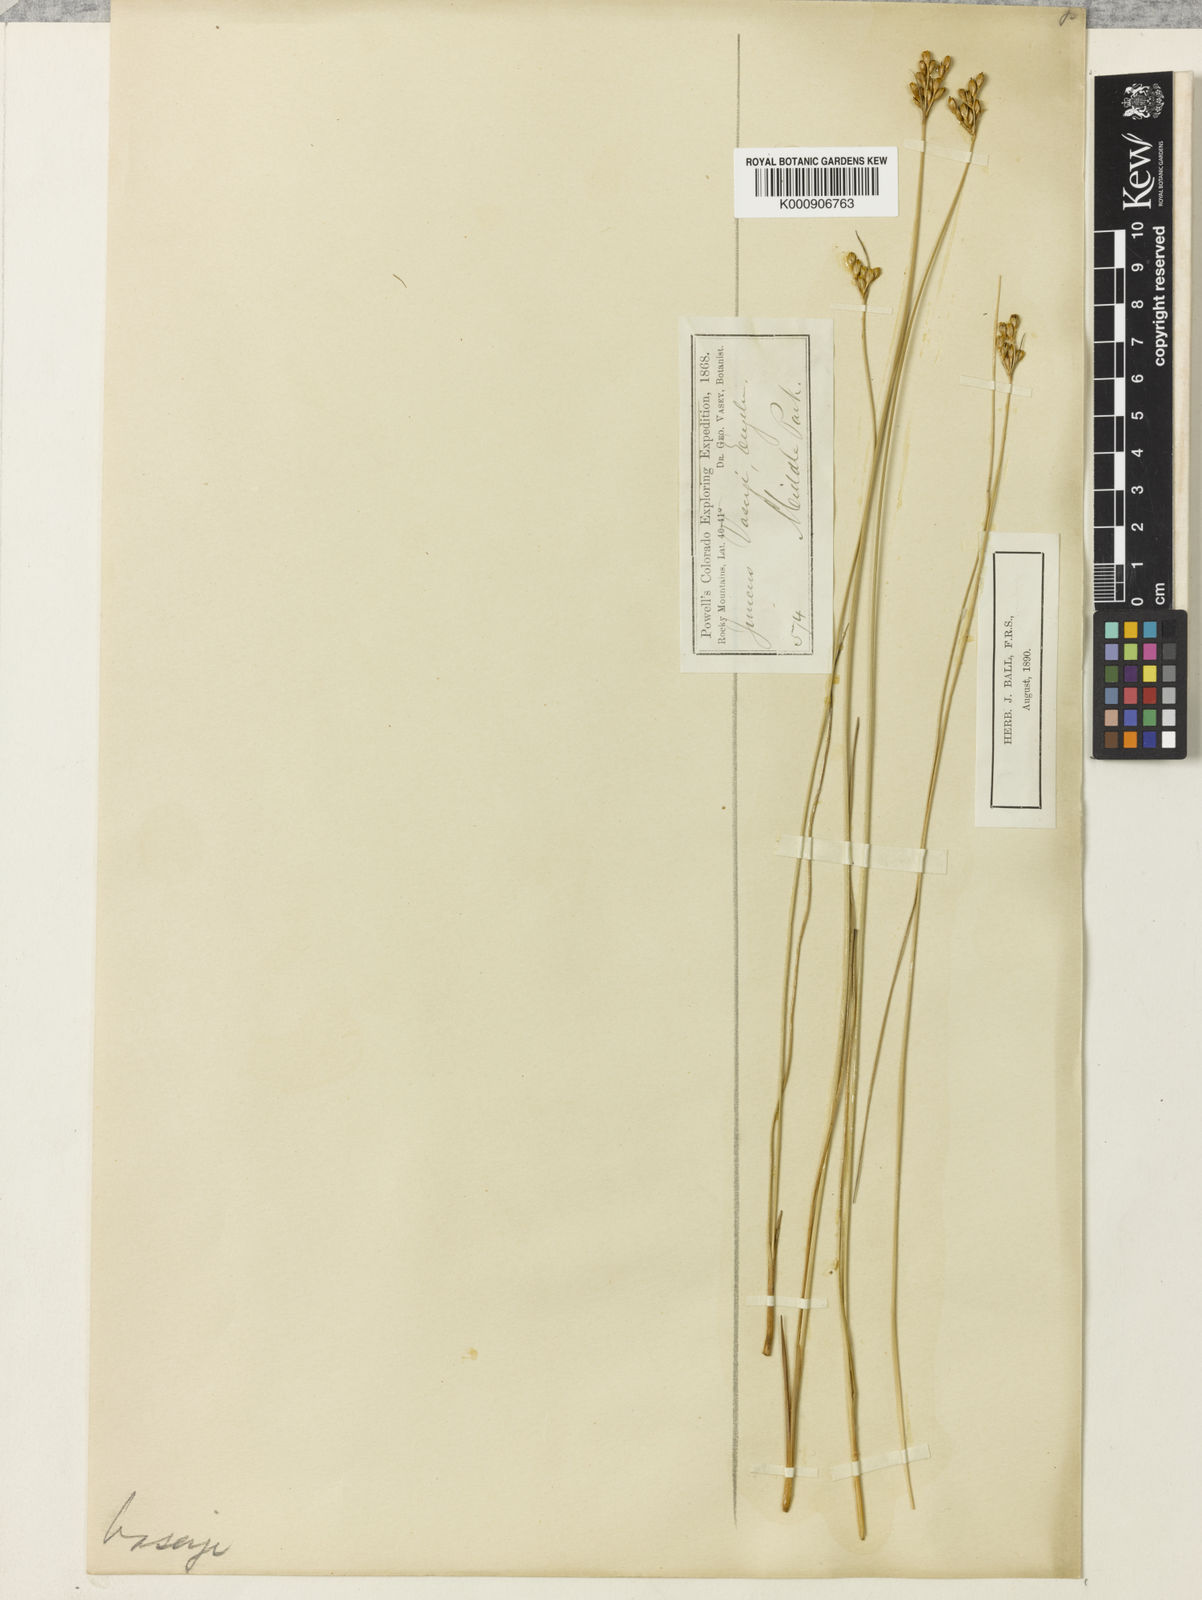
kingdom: Plantae
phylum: Tracheophyta
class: Liliopsida
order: Poales
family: Juncaceae
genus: Juncus
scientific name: Juncus vaseyi
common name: Big-headed rush
